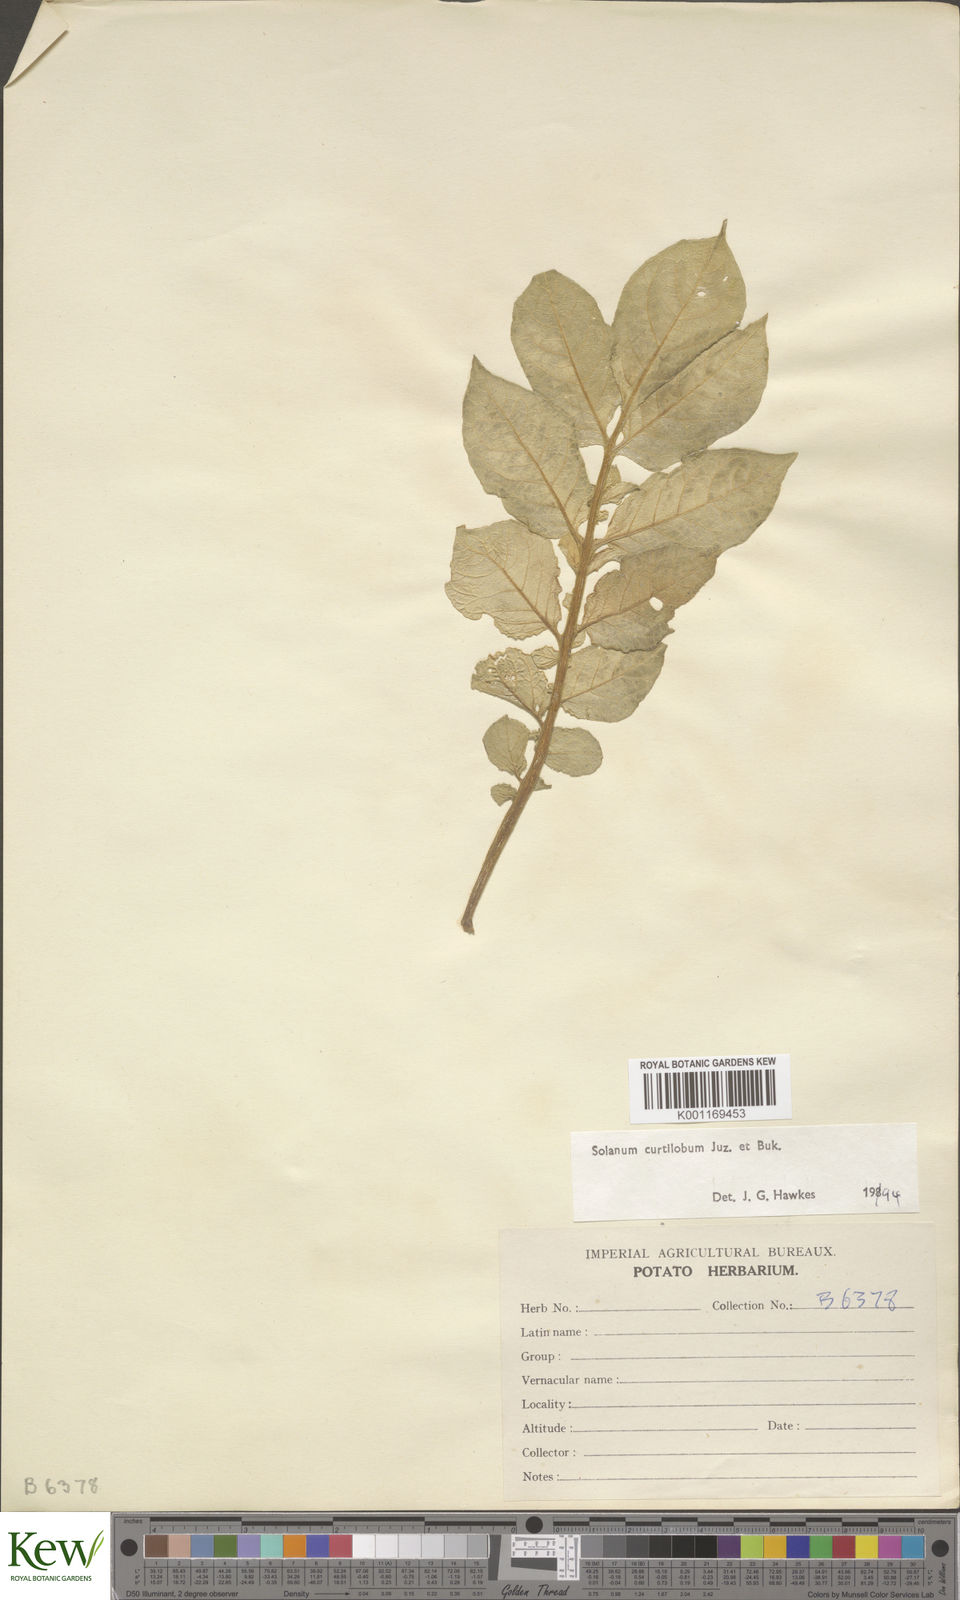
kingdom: Plantae
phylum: Tracheophyta
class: Magnoliopsida
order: Solanales
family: Solanaceae
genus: Solanum
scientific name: Solanum curtilobum
